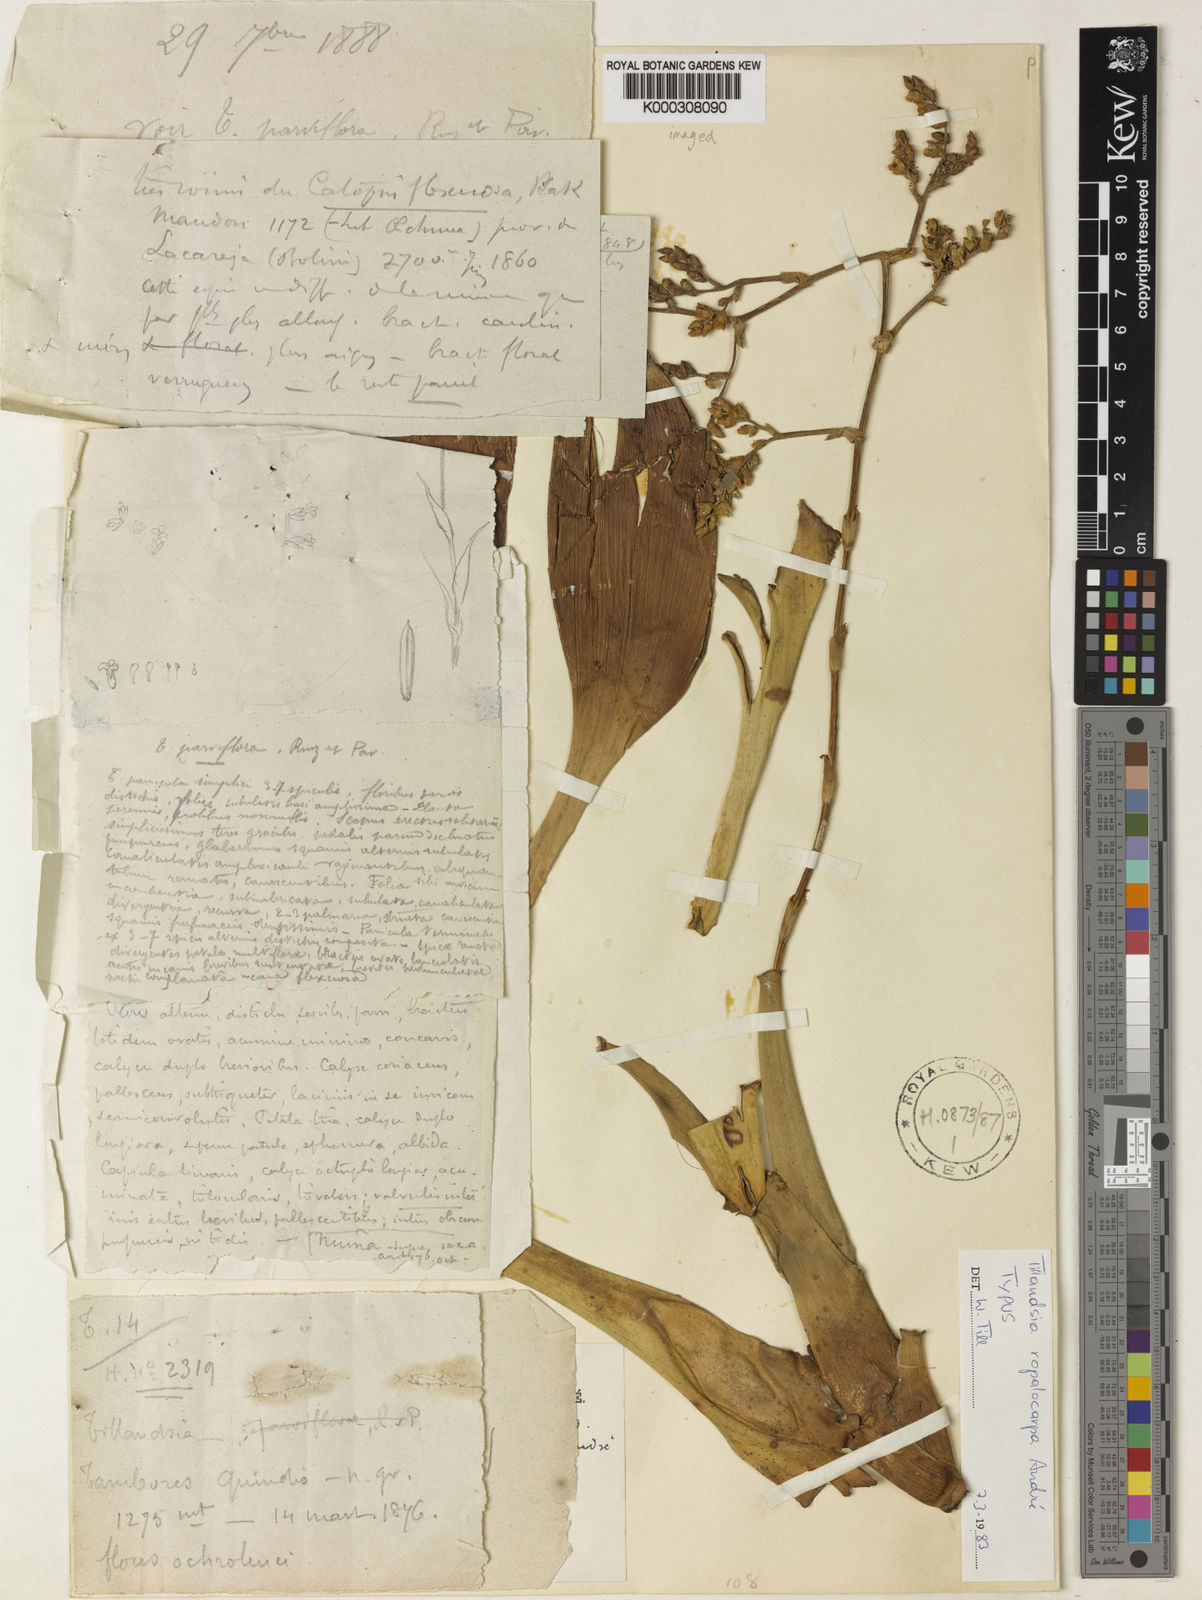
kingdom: Plantae
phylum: Tracheophyta
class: Liliopsida
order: Poales
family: Bromeliaceae
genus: Tillandsia
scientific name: Tillandsia
